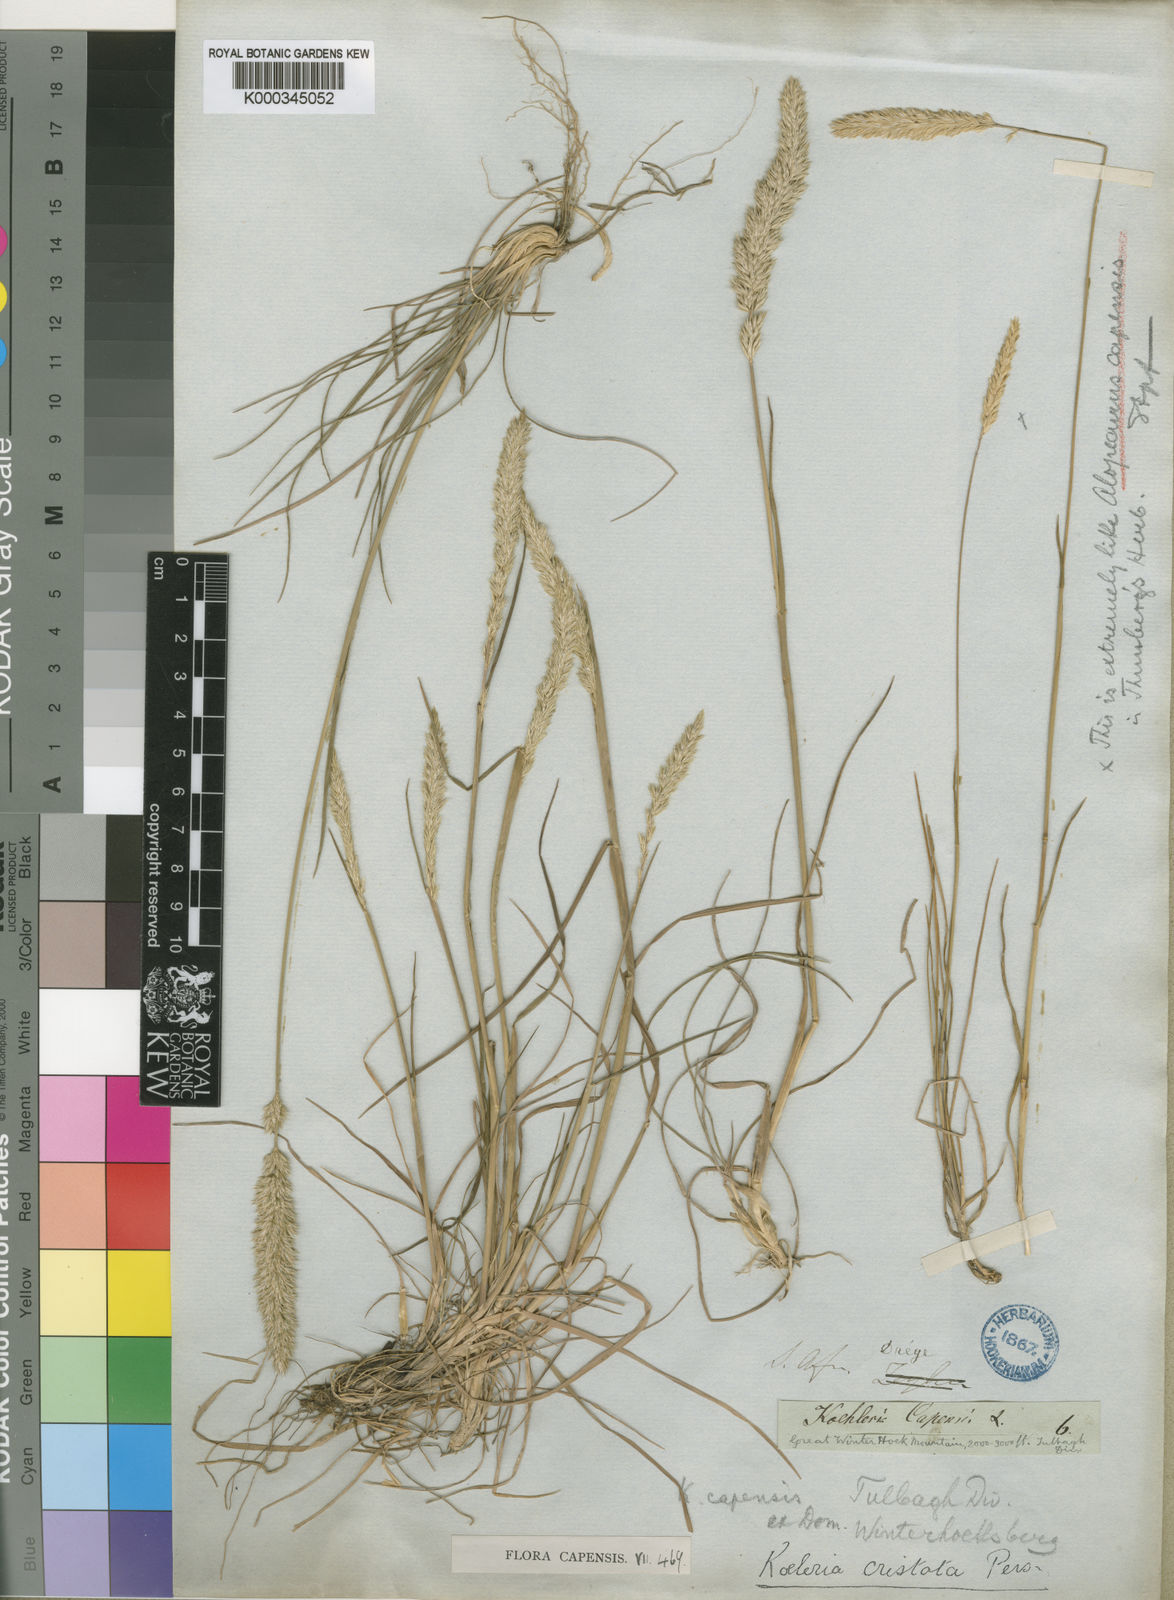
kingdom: Plantae
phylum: Tracheophyta
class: Liliopsida
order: Poales
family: Poaceae
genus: Koeleria
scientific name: Koeleria capensis
